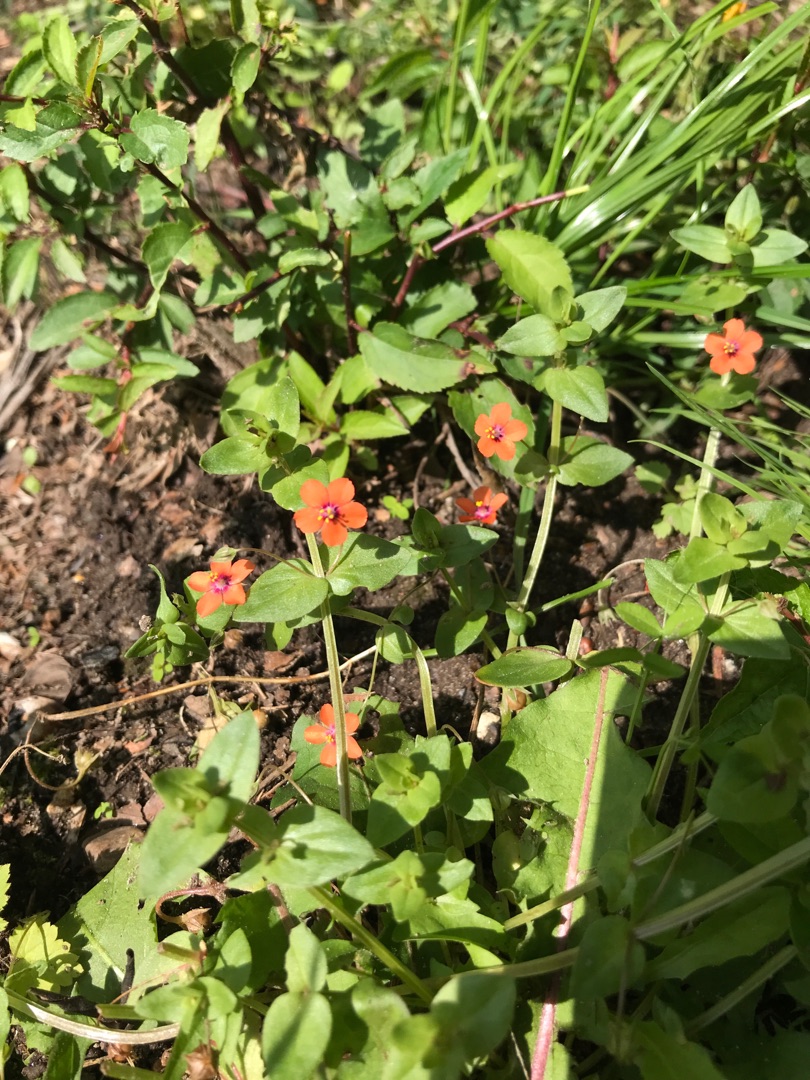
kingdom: Plantae
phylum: Tracheophyta
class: Magnoliopsida
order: Ericales
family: Primulaceae
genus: Lysimachia
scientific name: Lysimachia arvensis
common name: Rød arve
